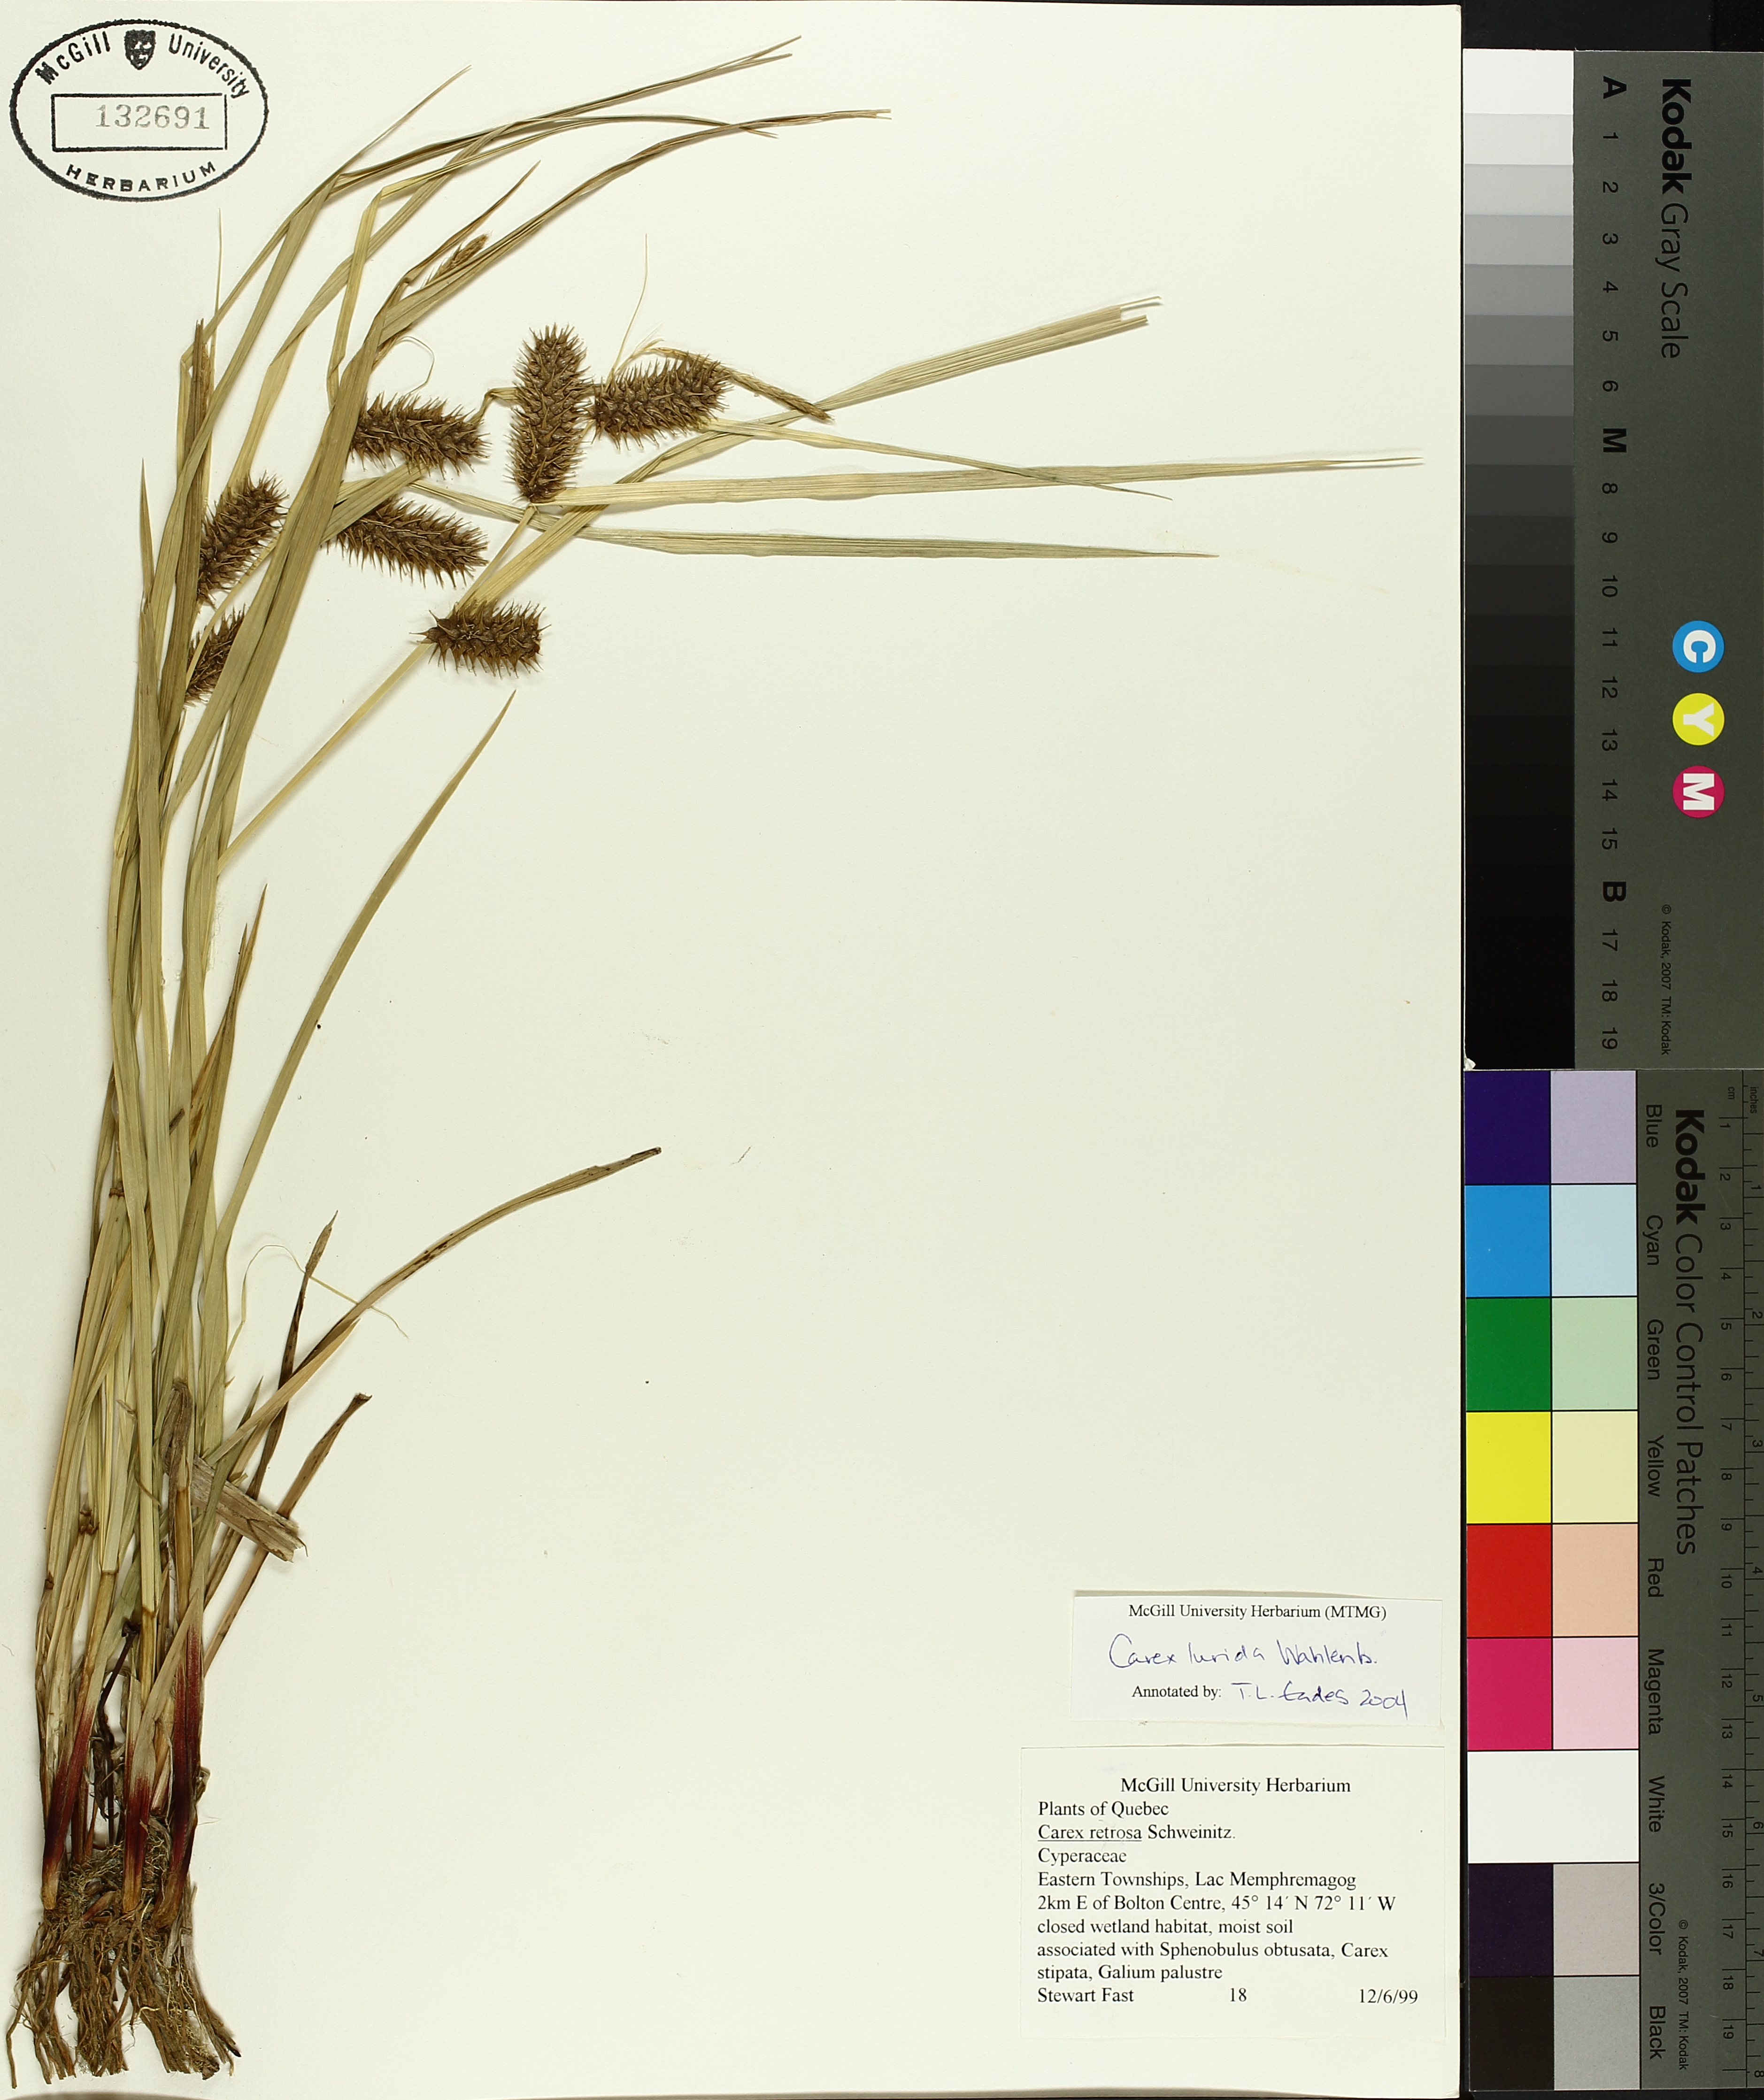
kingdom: Plantae
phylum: Tracheophyta
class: Liliopsida
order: Poales
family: Cyperaceae
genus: Carex
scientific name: Carex lurida
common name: Sallow sedge
